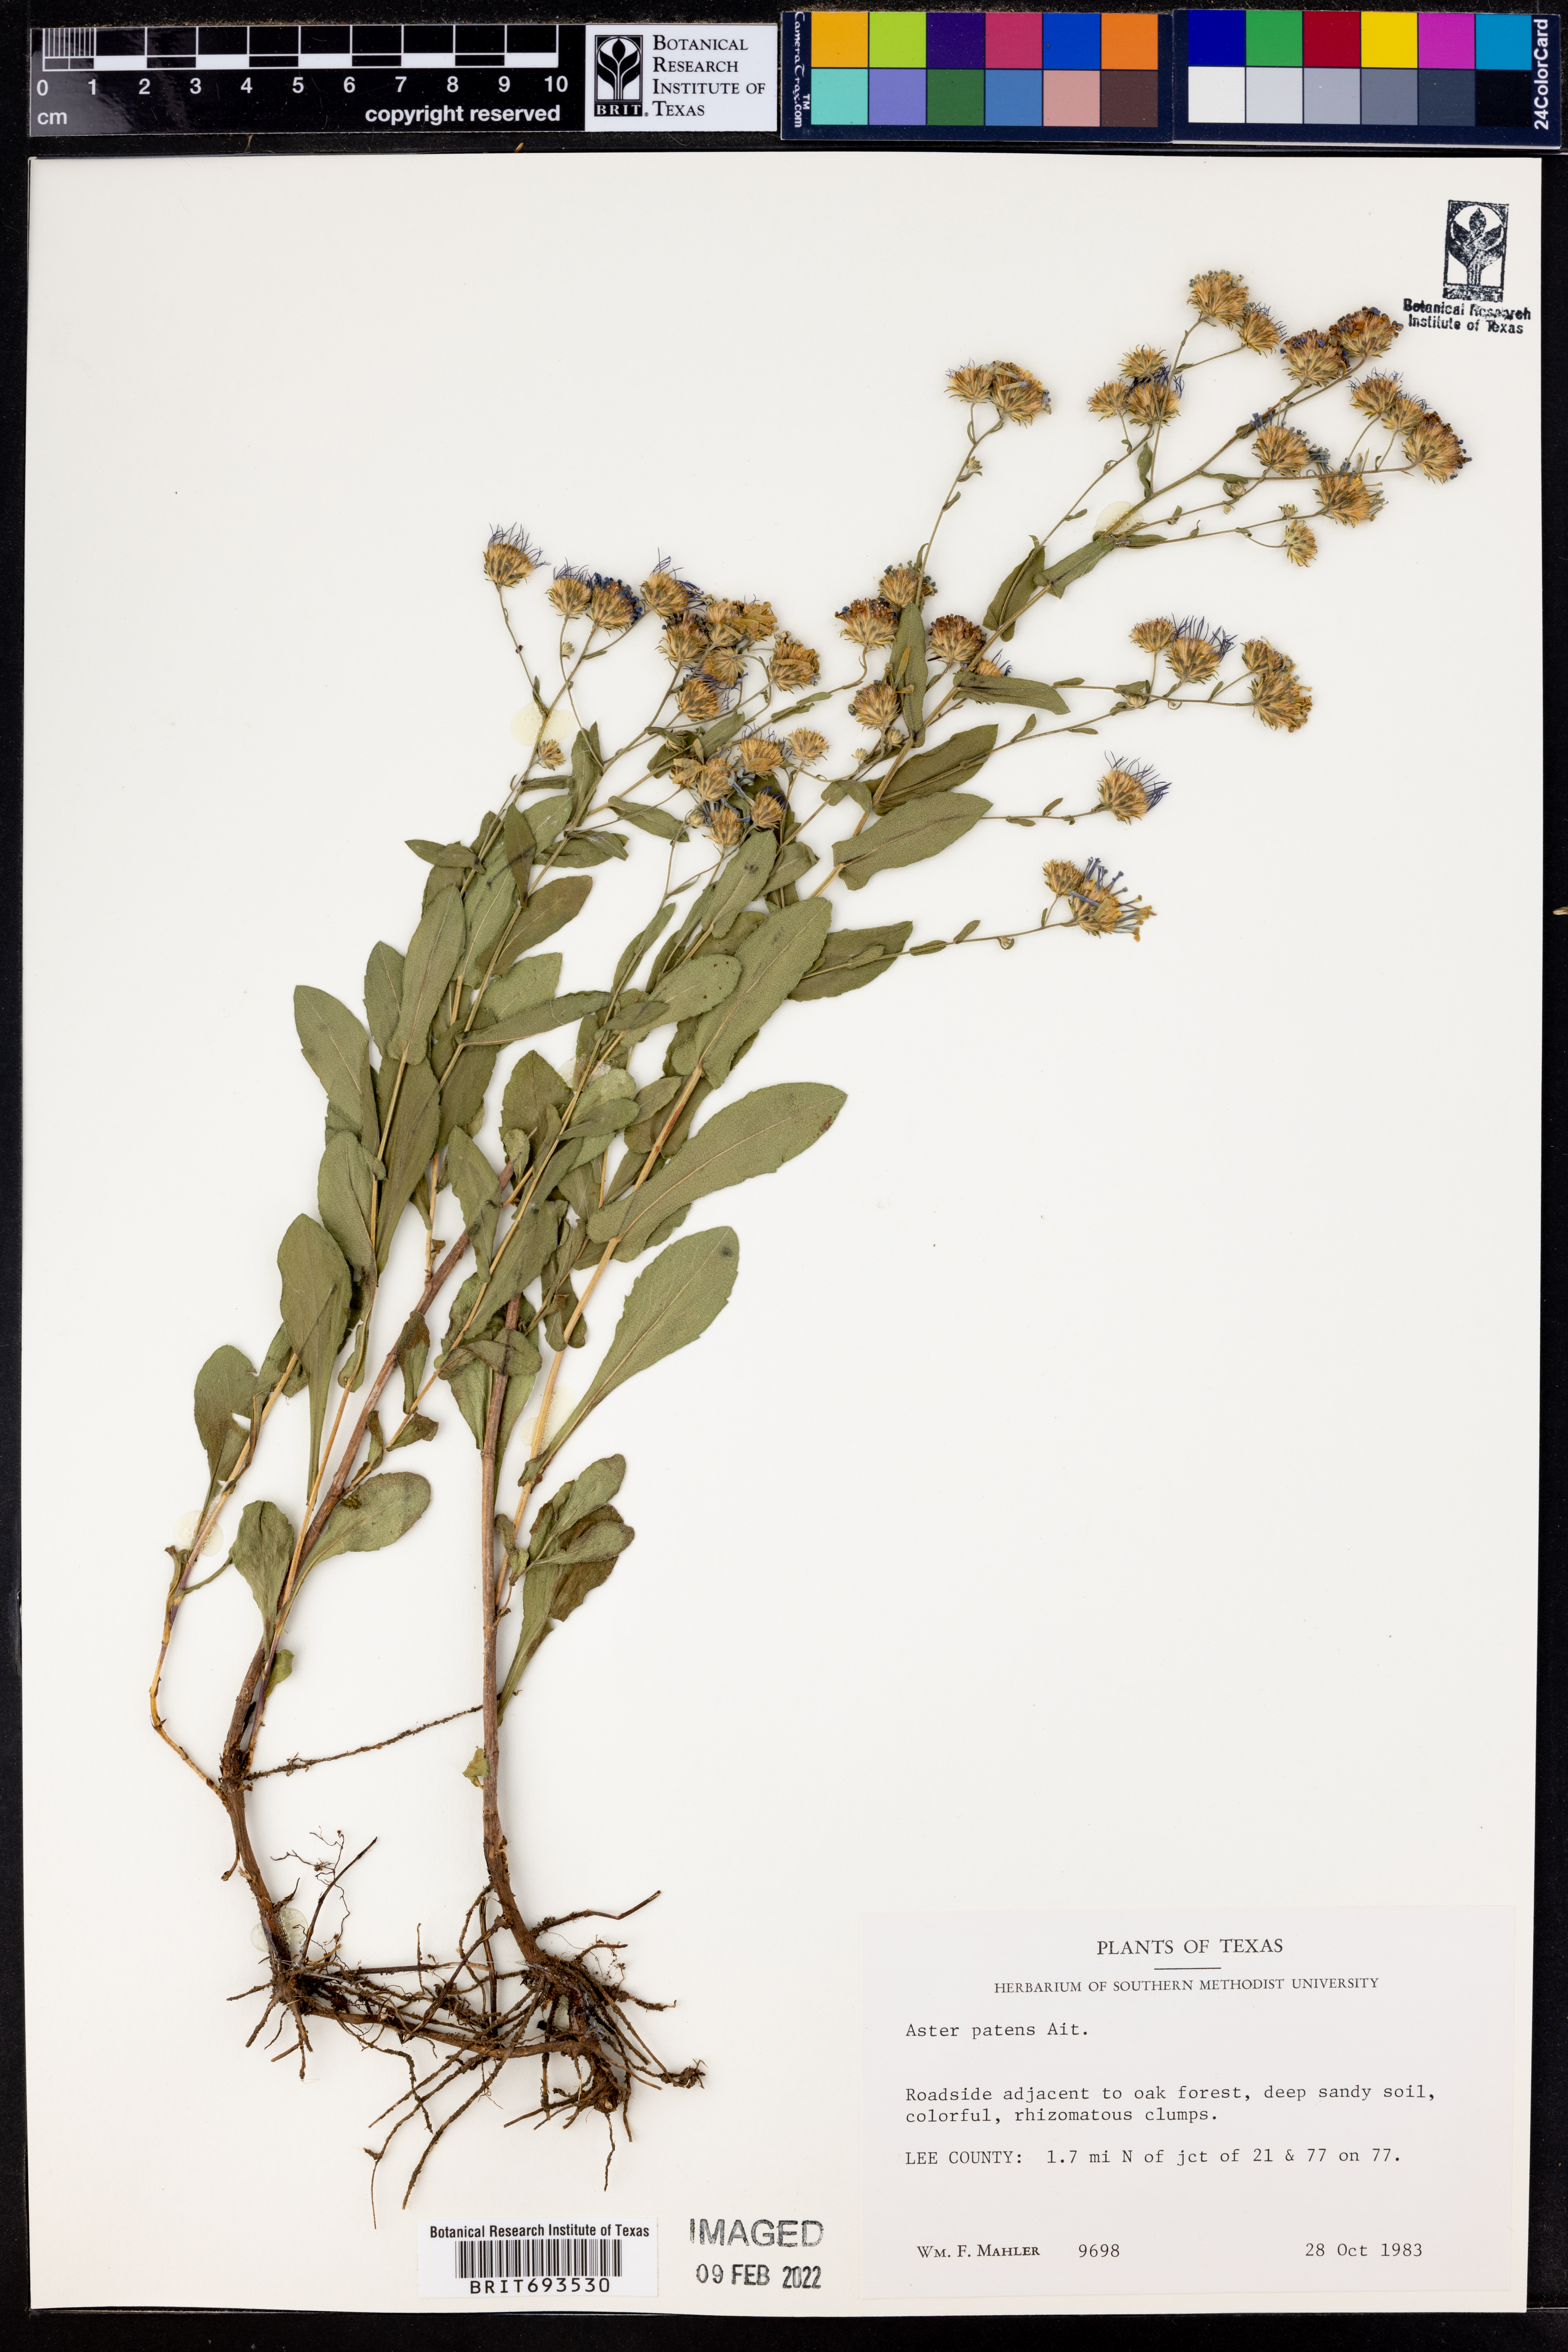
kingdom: Plantae
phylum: Tracheophyta
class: Magnoliopsida
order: Asterales
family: Asteraceae
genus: Symphyotrichum
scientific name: Symphyotrichum patens
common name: Late purple aster
